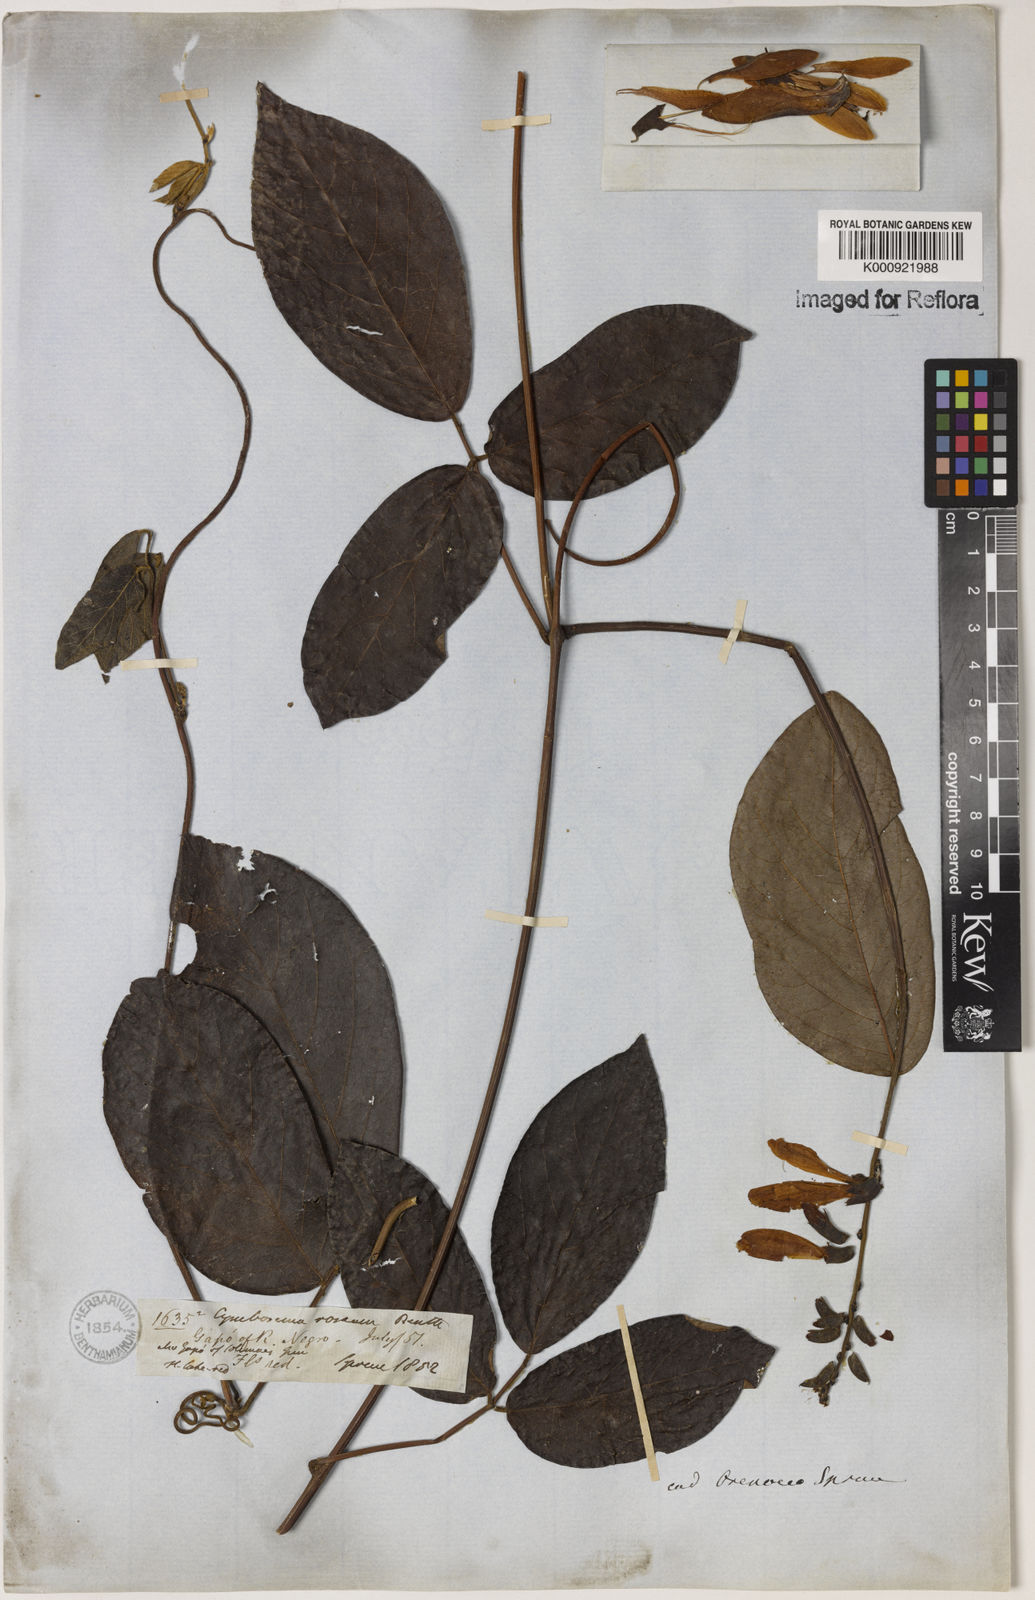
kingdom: Plantae
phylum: Tracheophyta
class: Magnoliopsida
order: Fabales
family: Fabaceae
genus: Cymbosema
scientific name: Cymbosema roseum
